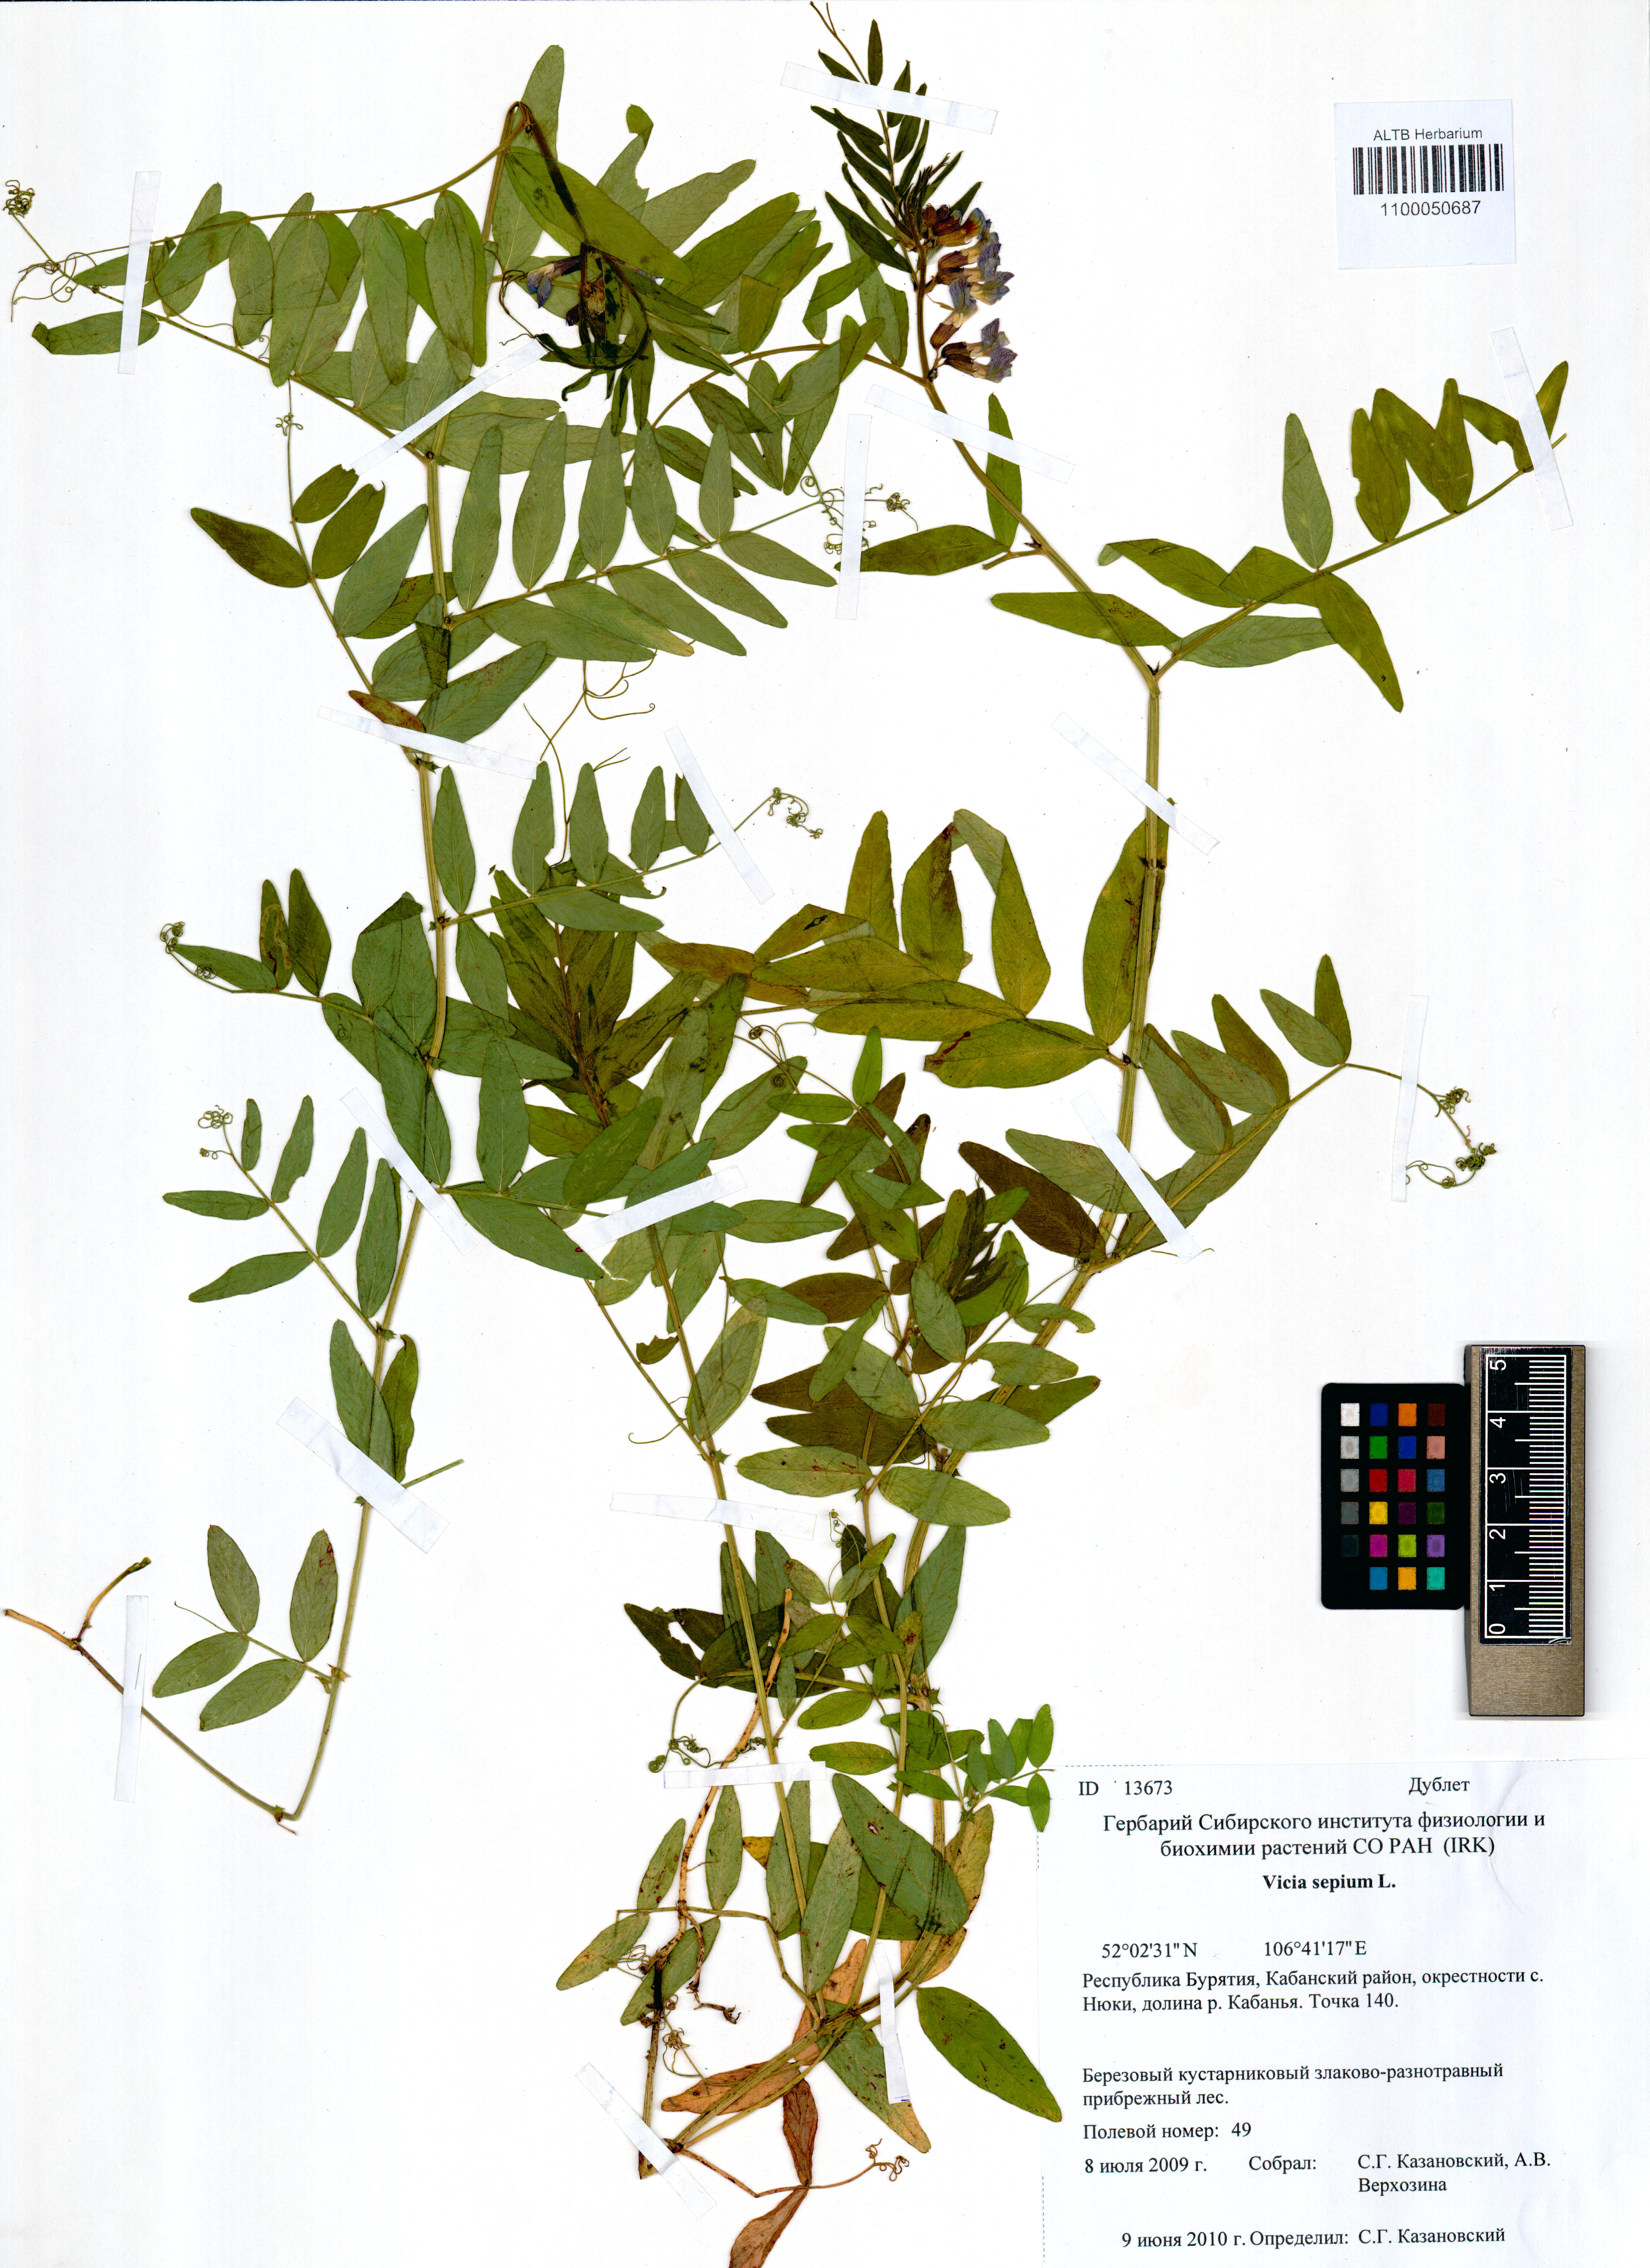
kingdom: Plantae
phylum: Tracheophyta
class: Magnoliopsida
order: Fabales
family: Fabaceae
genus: Vicia
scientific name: Vicia sepium
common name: Bush vetch
